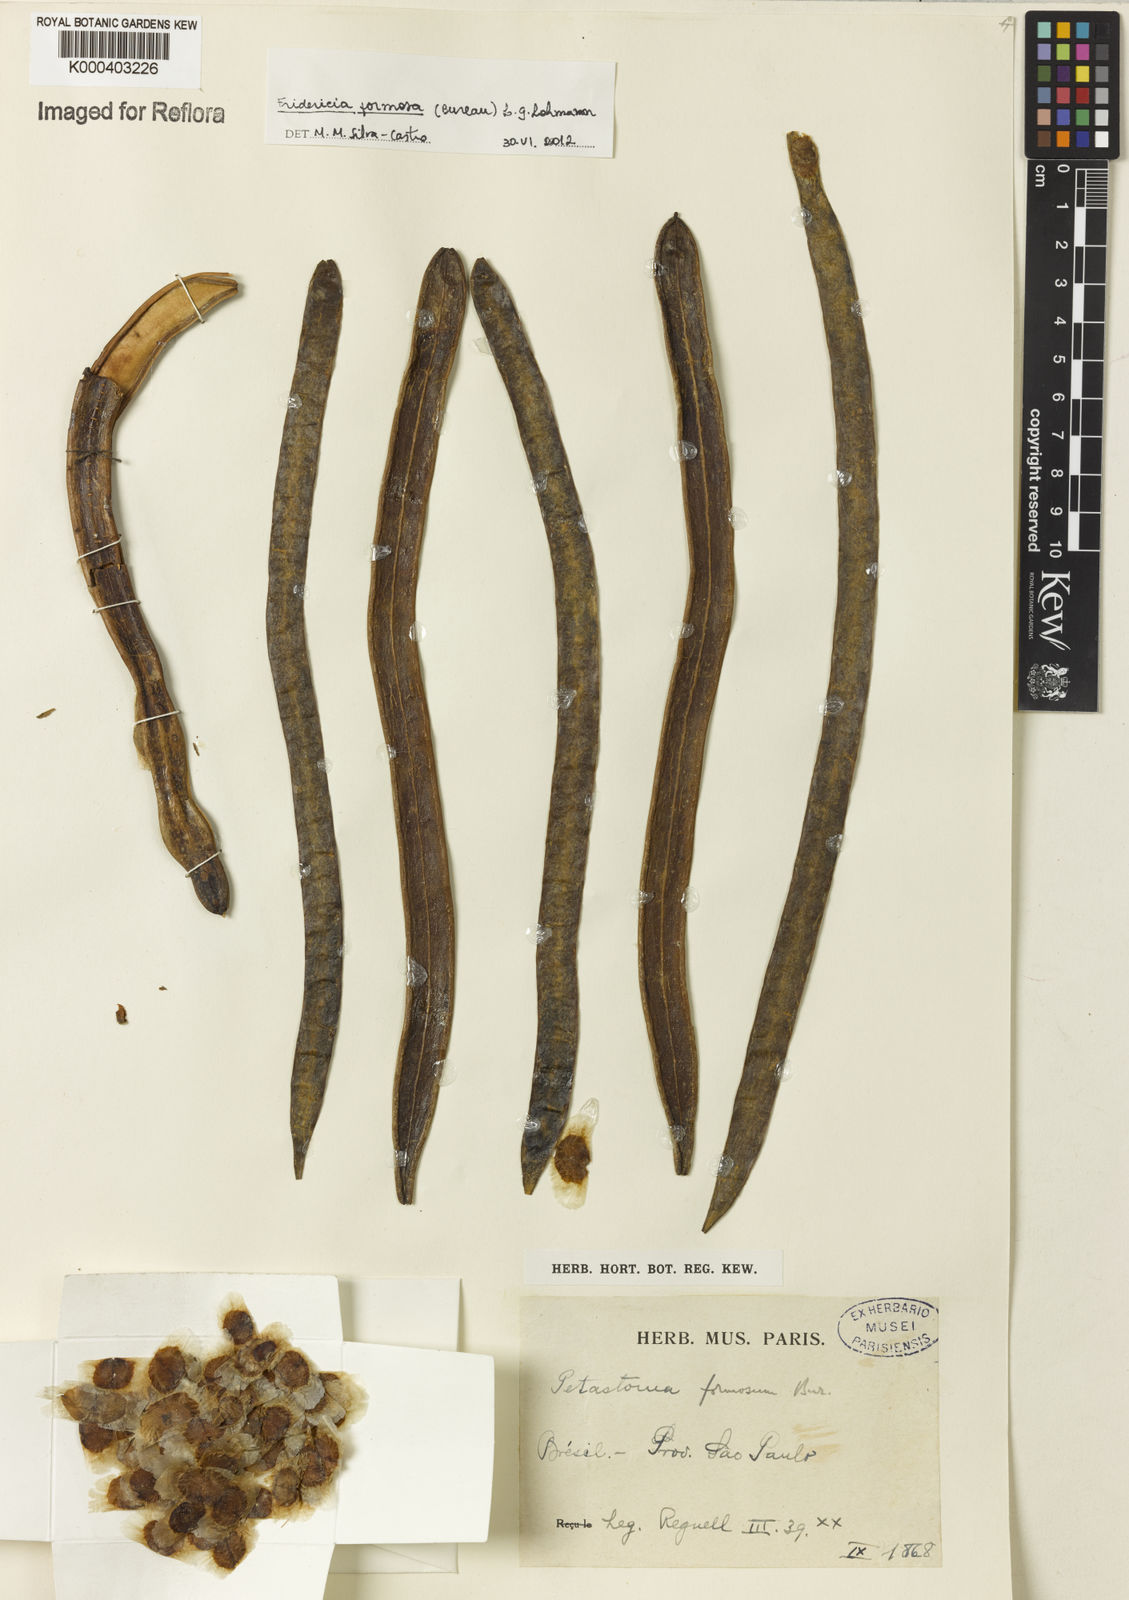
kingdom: Plantae
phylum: Tracheophyta
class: Magnoliopsida
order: Lamiales
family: Bignoniaceae
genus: Fridericia
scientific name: Fridericia formosa
